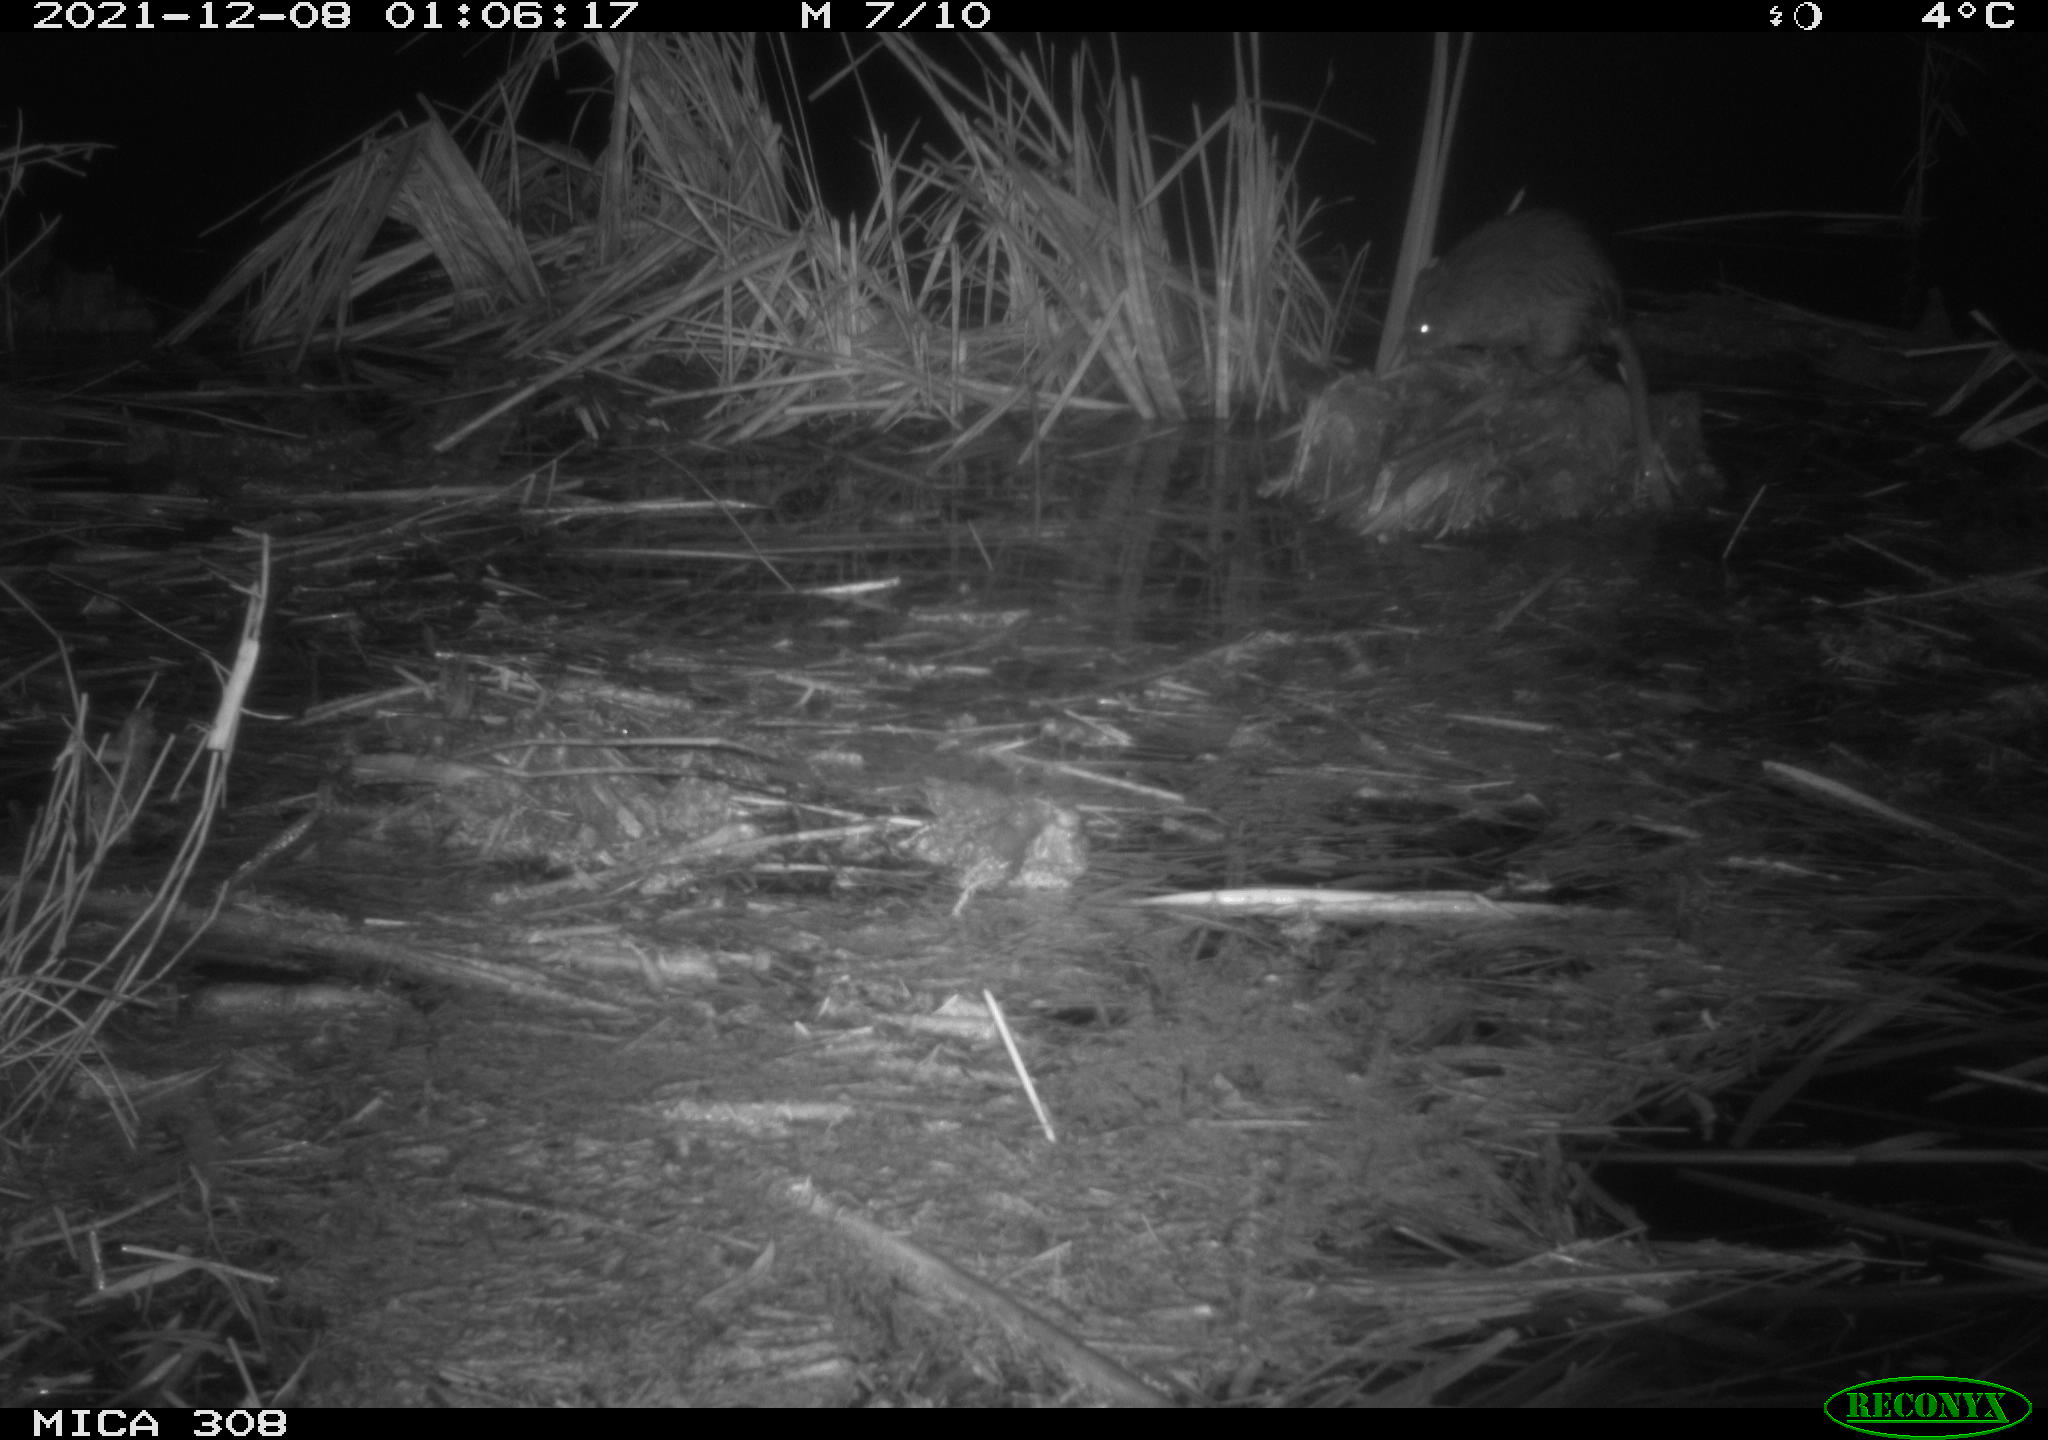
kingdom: Animalia
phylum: Chordata
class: Mammalia
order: Rodentia
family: Cricetidae
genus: Ondatra
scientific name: Ondatra zibethicus
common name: Muskrat
